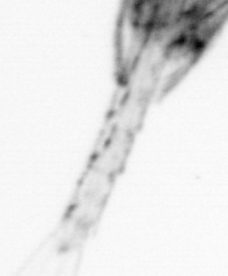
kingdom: Animalia
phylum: Arthropoda
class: Copepoda
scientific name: Copepoda
